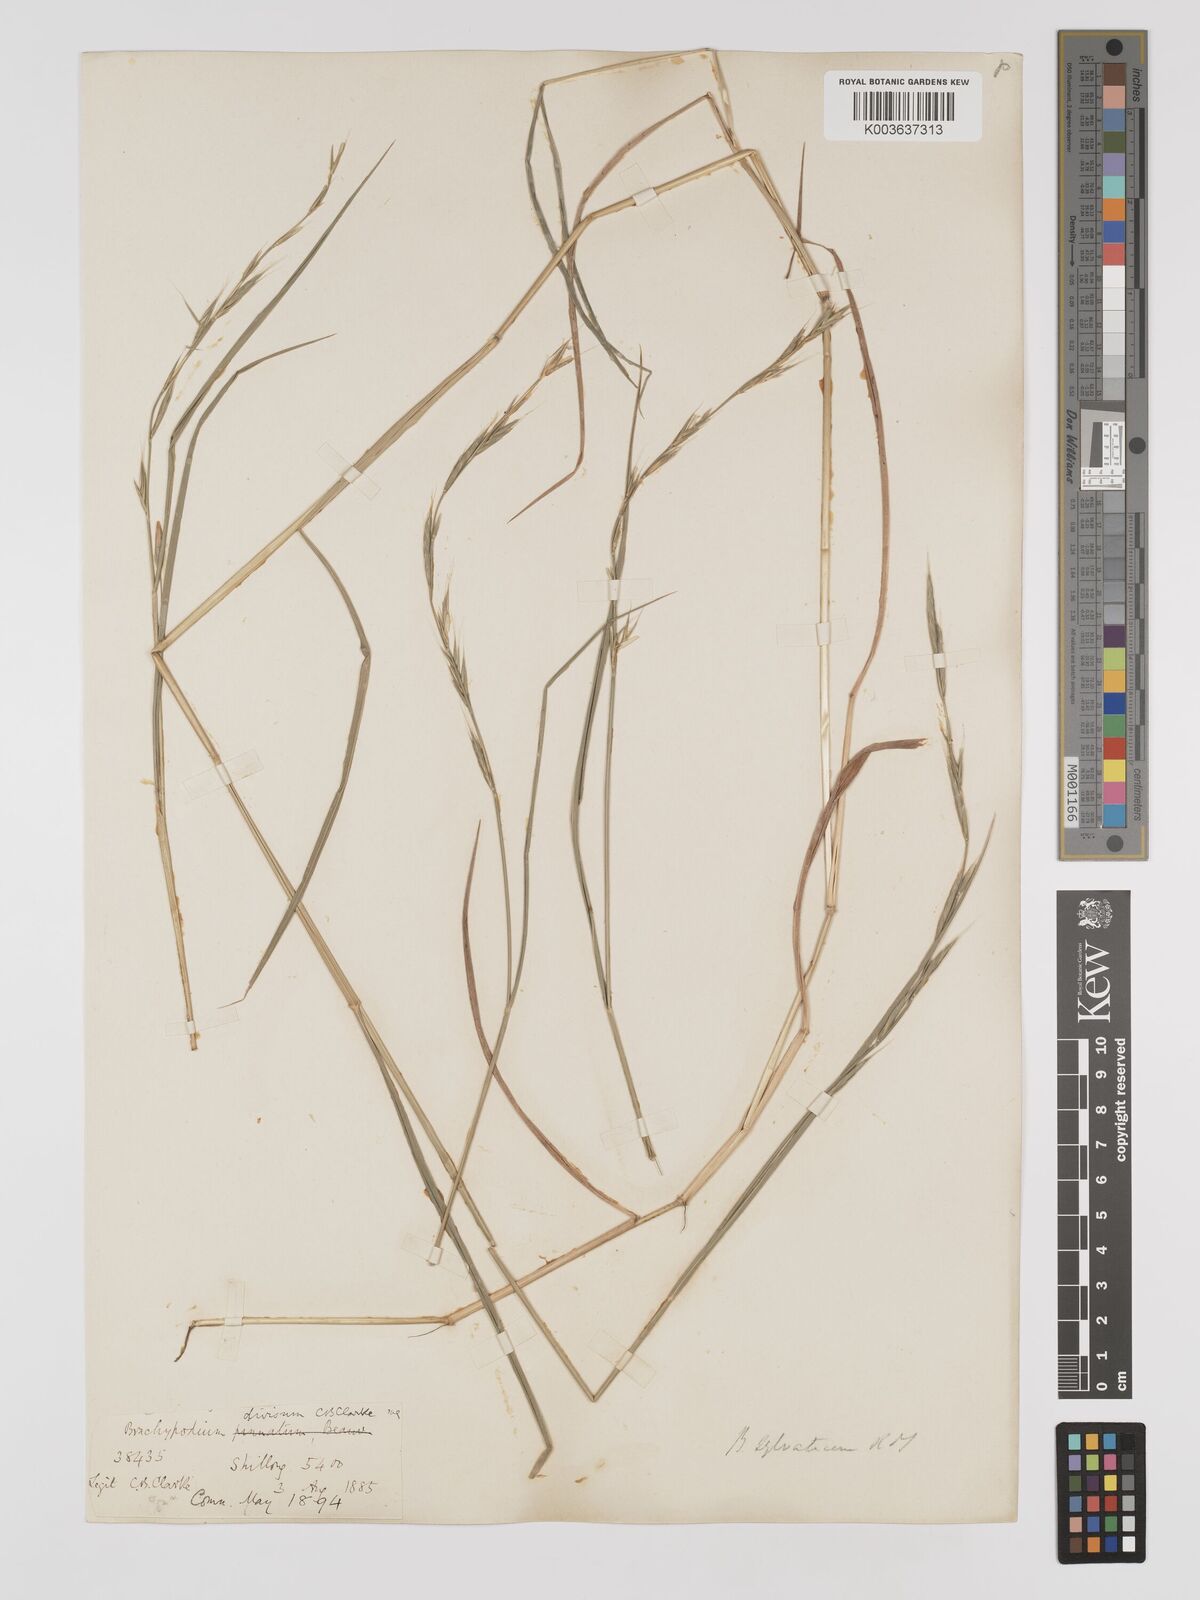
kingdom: Plantae
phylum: Tracheophyta
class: Liliopsida
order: Poales
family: Poaceae
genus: Brachypodium
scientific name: Brachypodium sylvaticum
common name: False-brome
